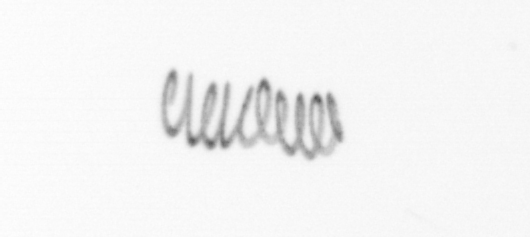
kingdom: Chromista
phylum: Ochrophyta
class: Bacillariophyceae
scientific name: Bacillariophyceae
